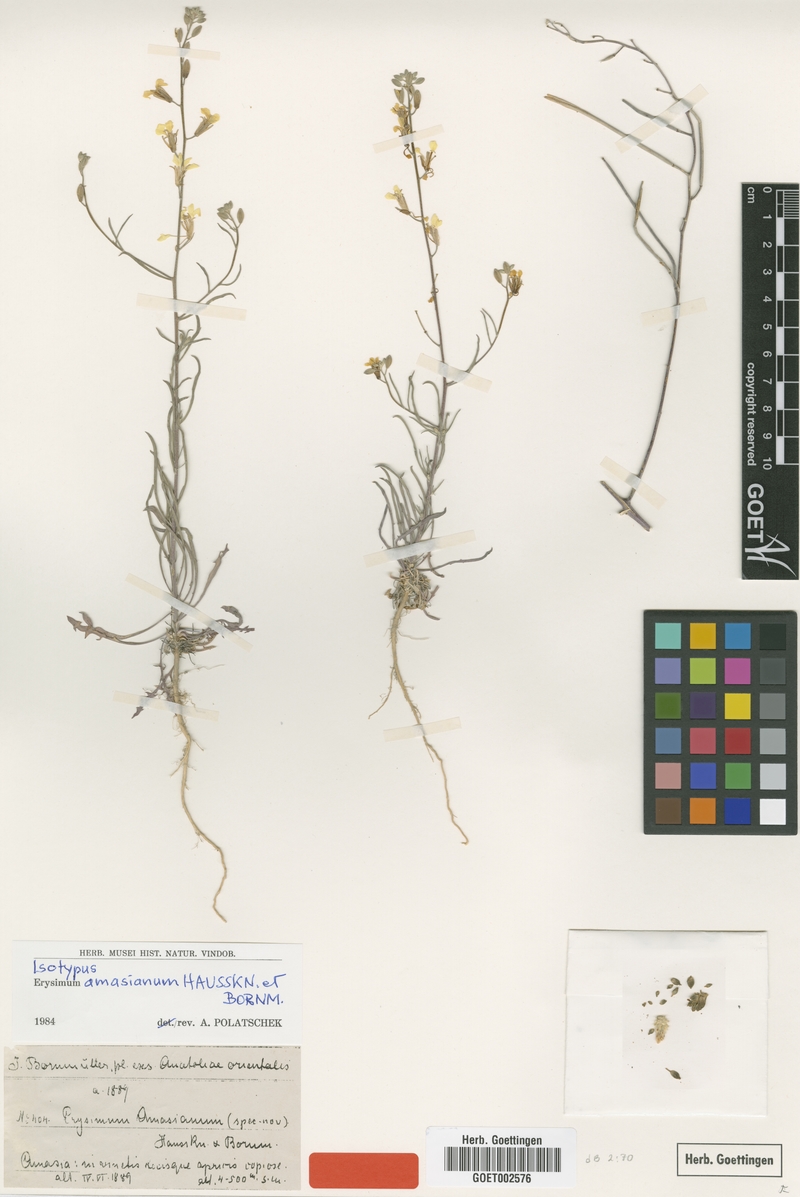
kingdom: Plantae
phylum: Tracheophyta
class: Magnoliopsida
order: Brassicales
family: Brassicaceae
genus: Erysimum
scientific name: Erysimum amasianum
